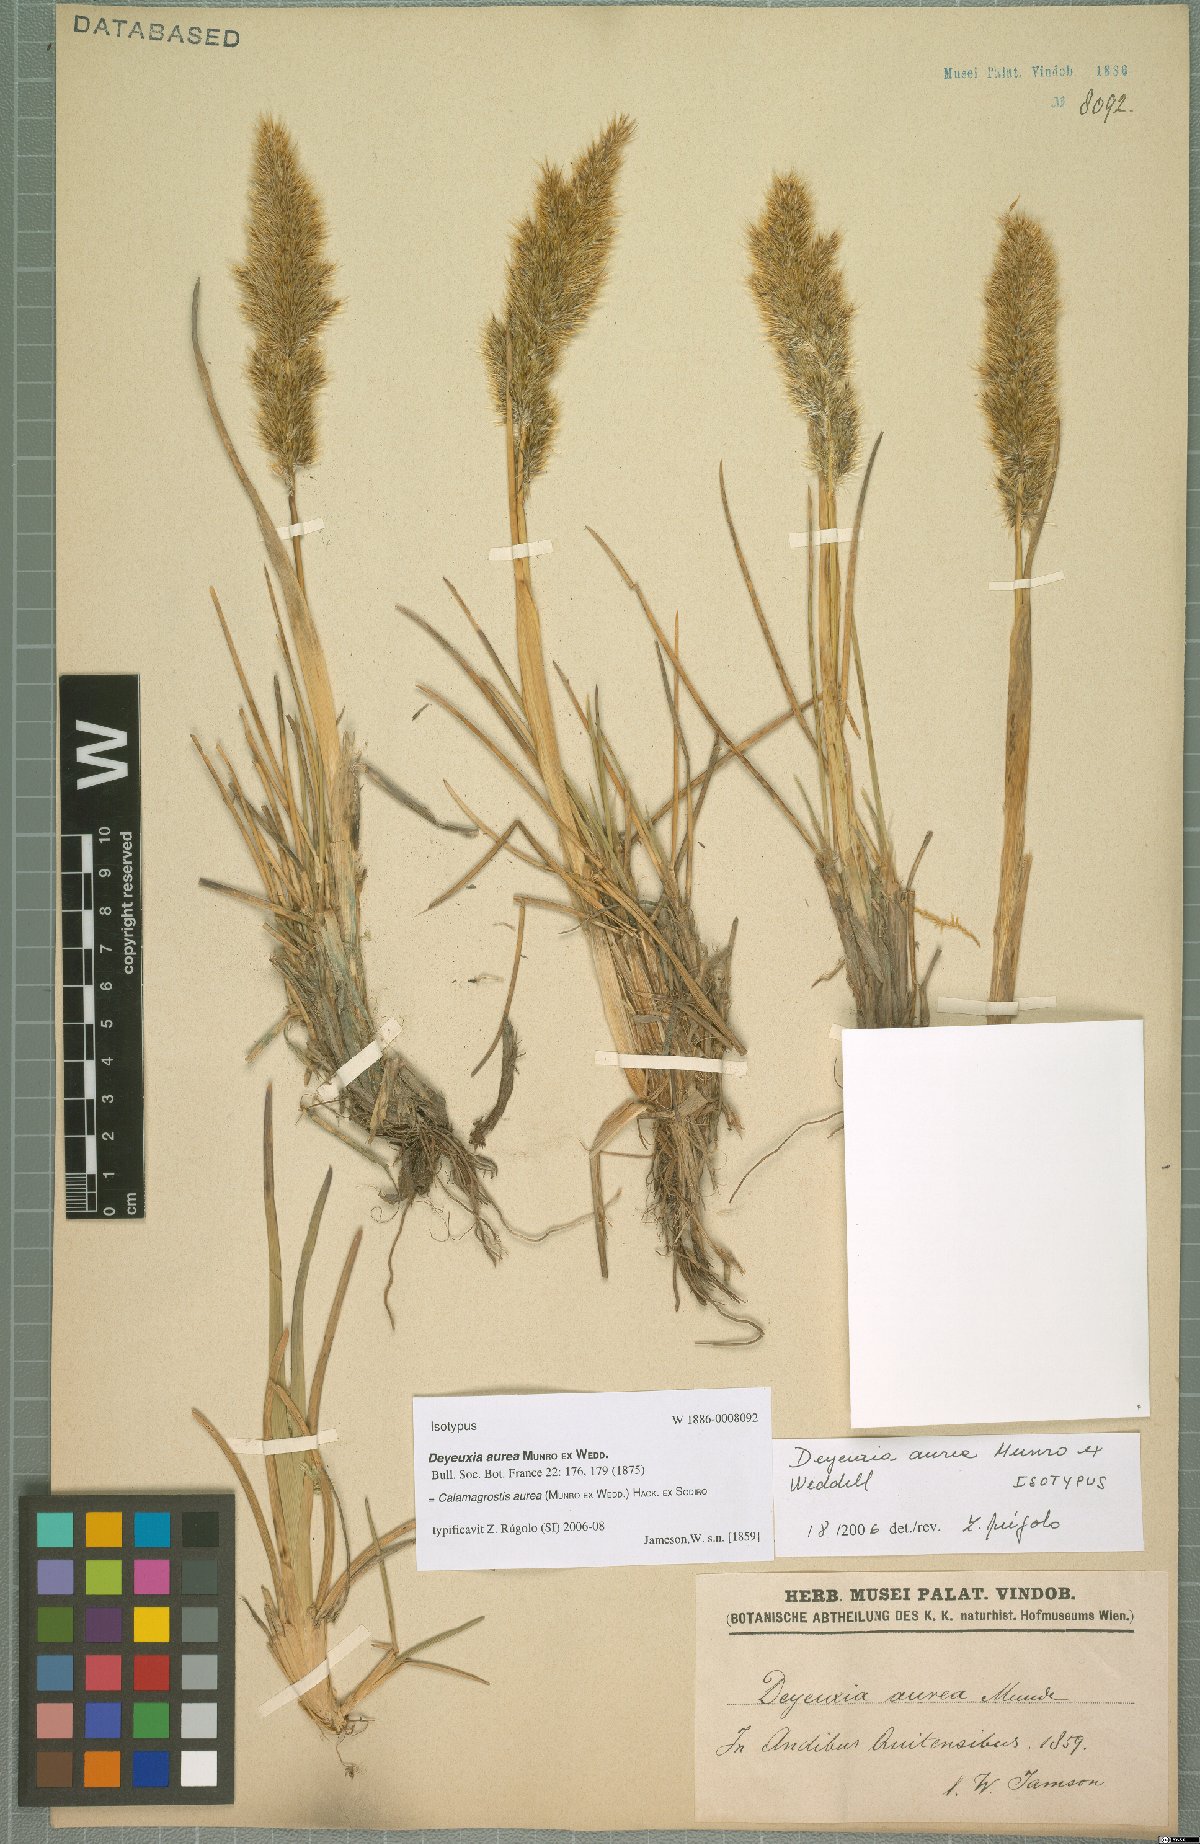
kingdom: Plantae
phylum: Tracheophyta
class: Liliopsida
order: Poales
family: Poaceae
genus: Deschampsia
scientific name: Deschampsia aurea
